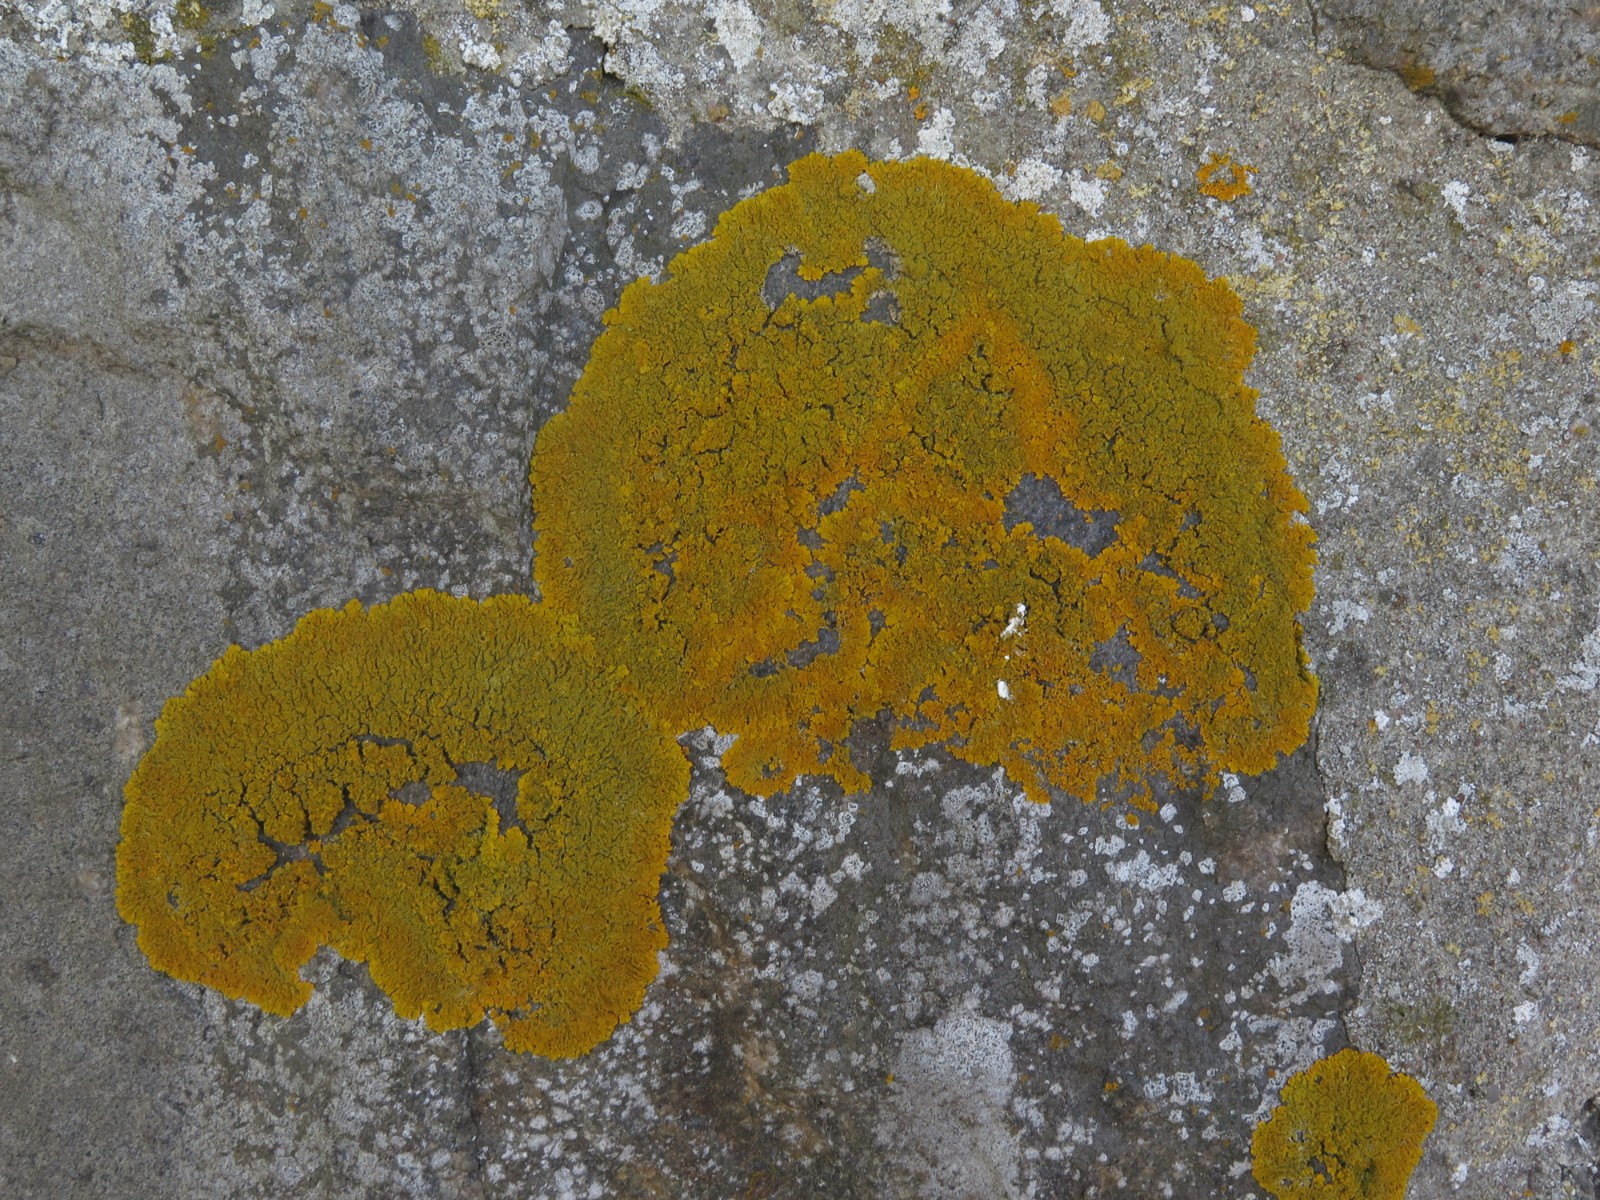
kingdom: Fungi
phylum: Ascomycota
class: Lecanoromycetes
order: Teloschistales
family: Teloschistaceae
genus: Xanthoria
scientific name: Xanthoria calcicola
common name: vortet væggelav
